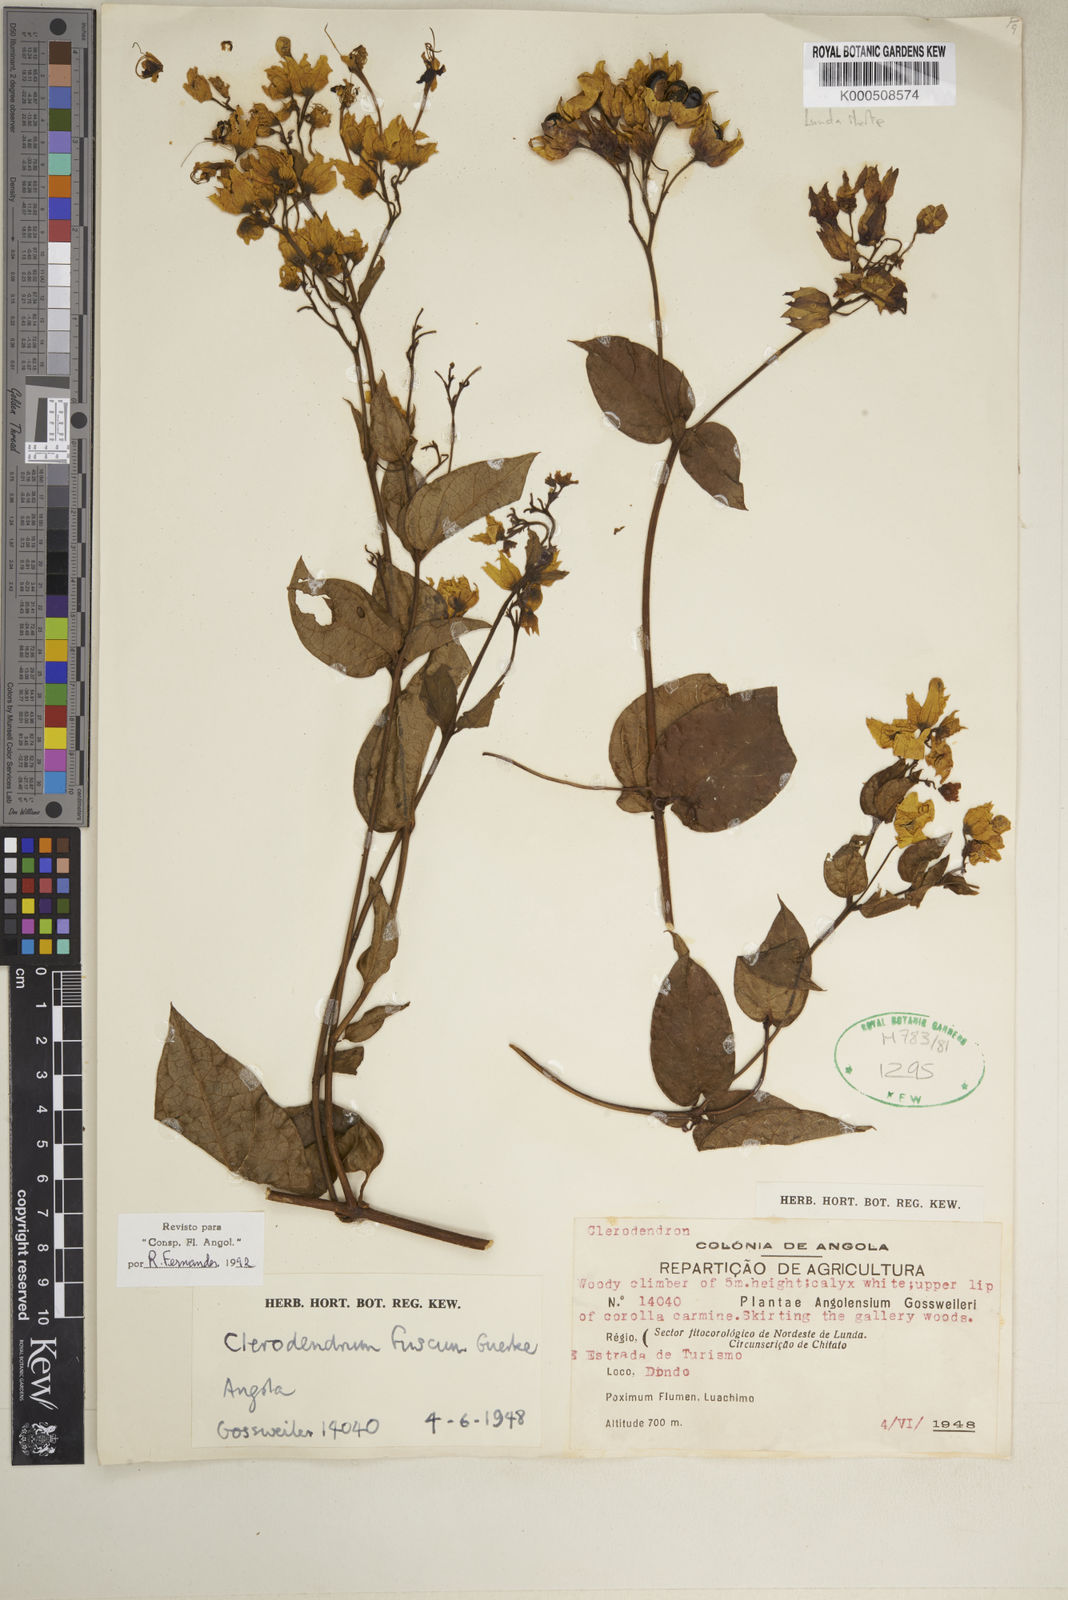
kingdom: Plantae
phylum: Tracheophyta
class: Magnoliopsida
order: Lamiales
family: Lamiaceae
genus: Clerodendrum
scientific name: Clerodendrum
